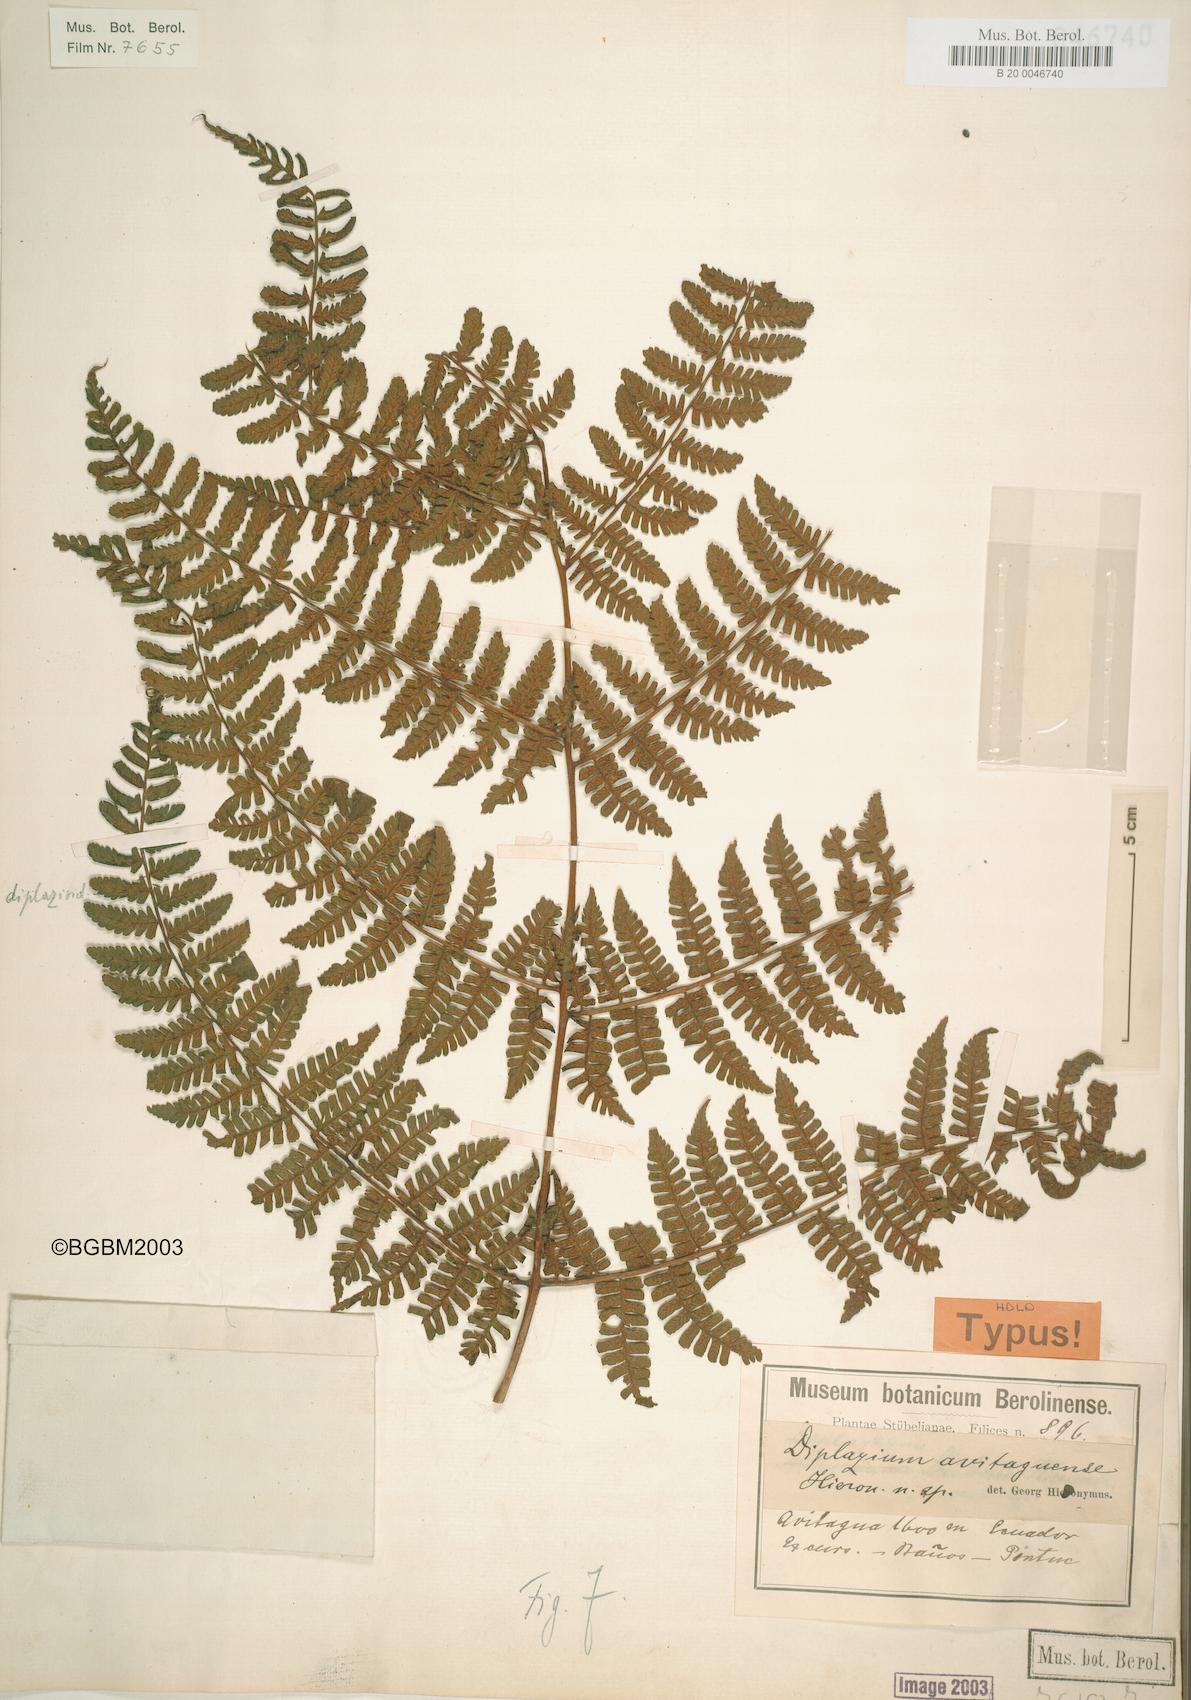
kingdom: Plantae
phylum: Tracheophyta
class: Polypodiopsida
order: Polypodiales
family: Athyriaceae
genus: Diplazium
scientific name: Diplazium avitaguense
